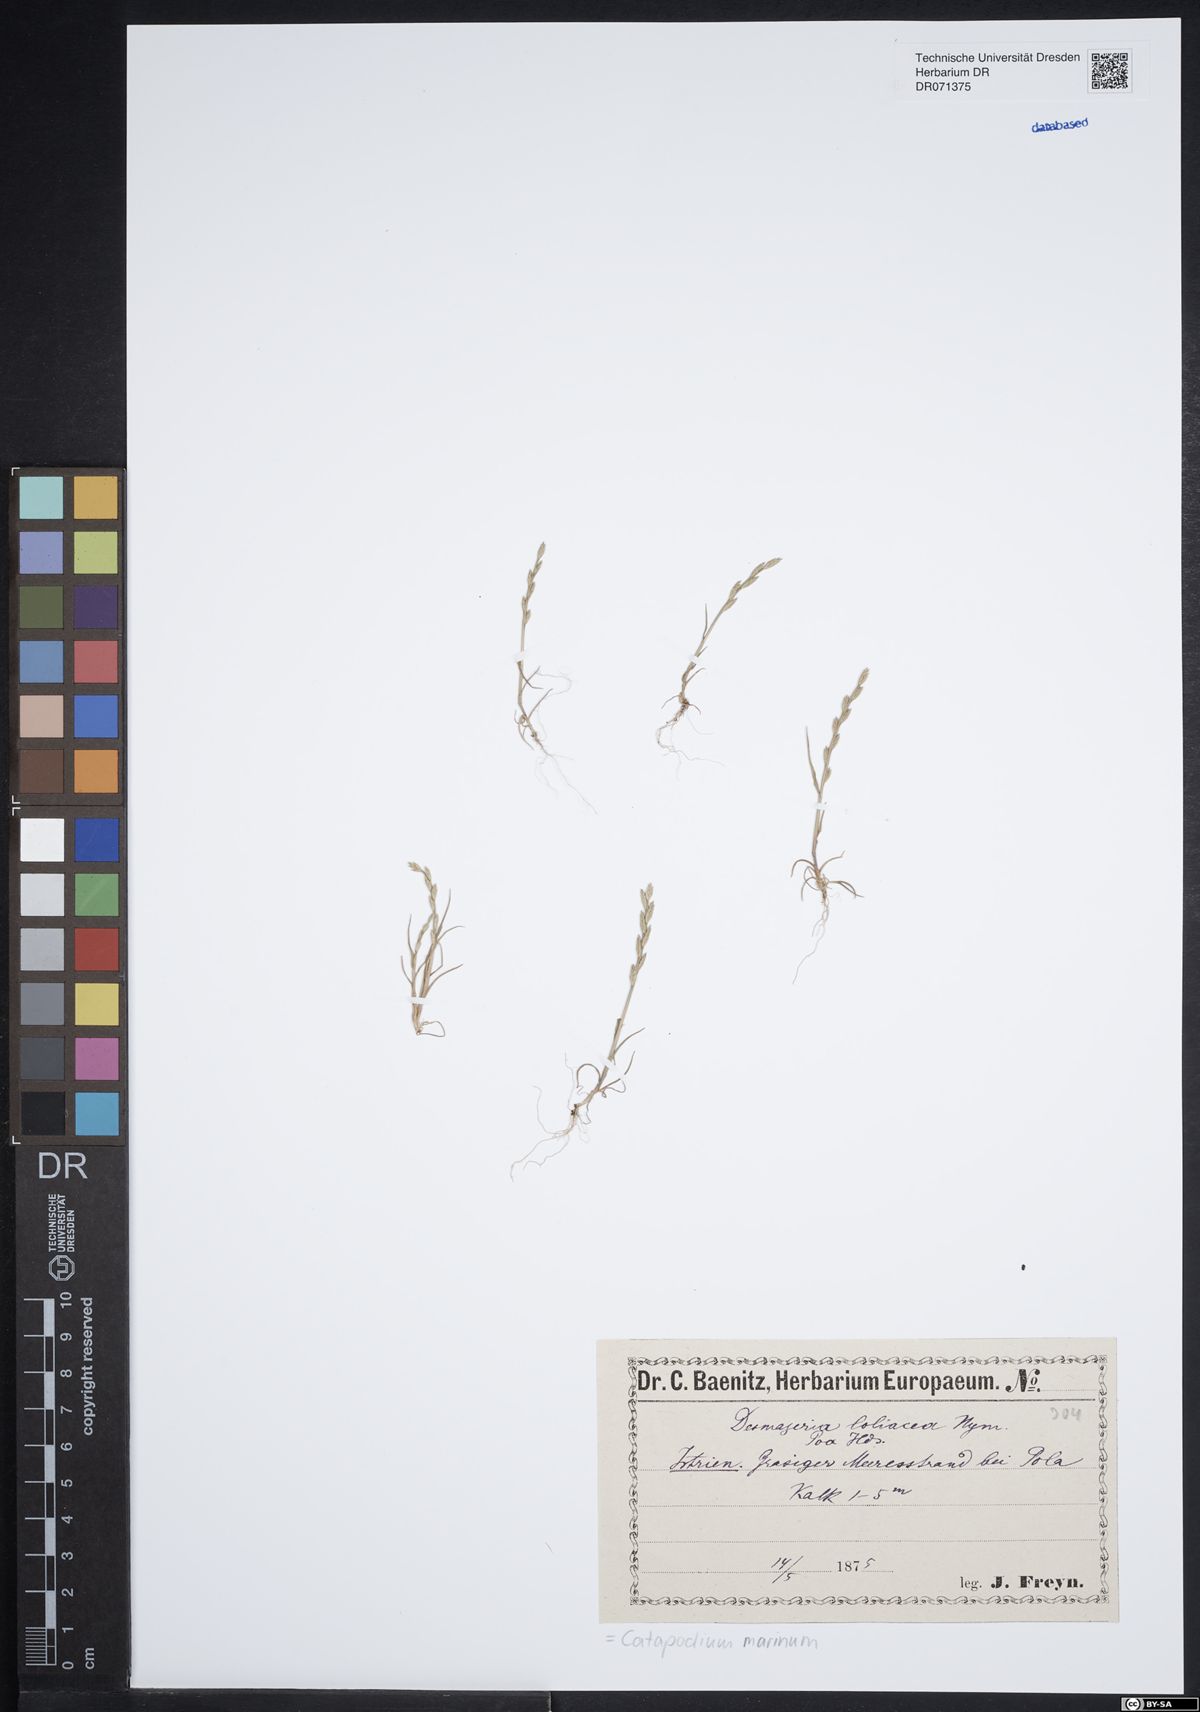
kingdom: Plantae
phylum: Tracheophyta
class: Liliopsida
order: Poales
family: Poaceae
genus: Catapodium
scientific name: Catapodium marinum
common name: Sea fern-grass
